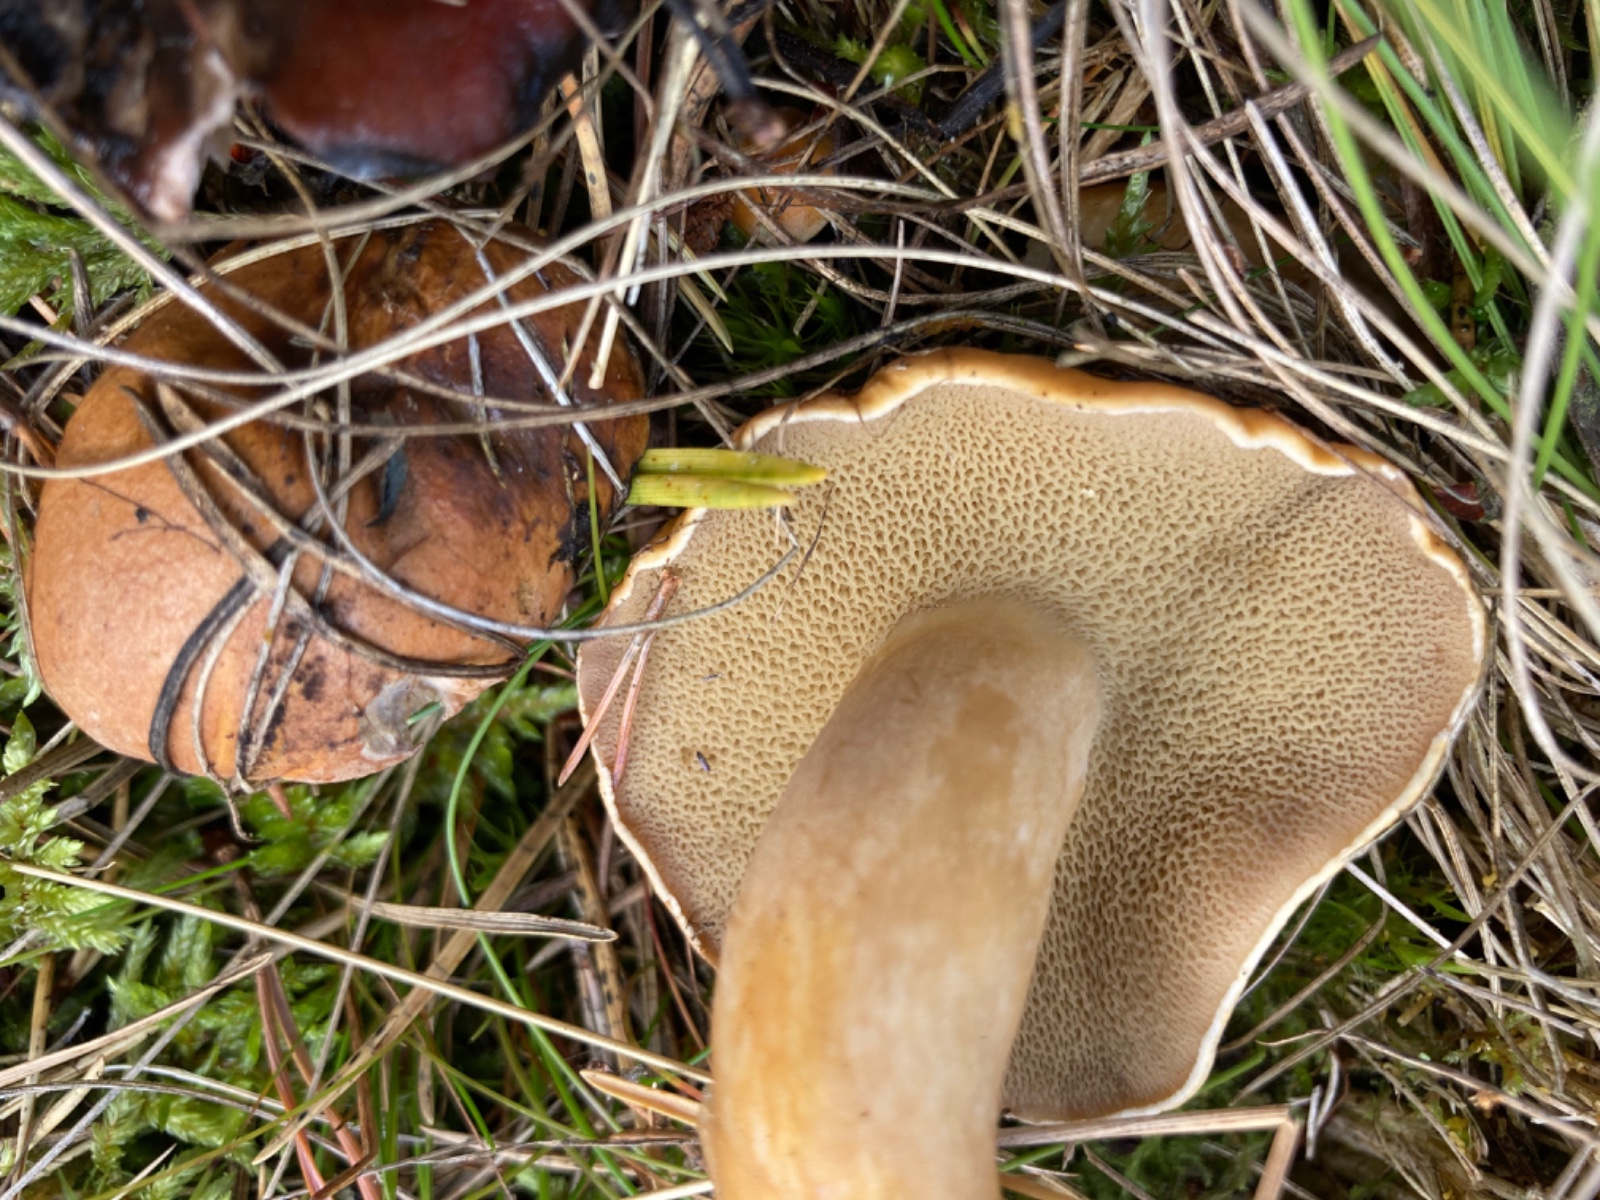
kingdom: Fungi
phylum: Basidiomycota
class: Agaricomycetes
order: Boletales
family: Suillaceae
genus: Suillus
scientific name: Suillus bovinus
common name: grovporet slimrørhat
